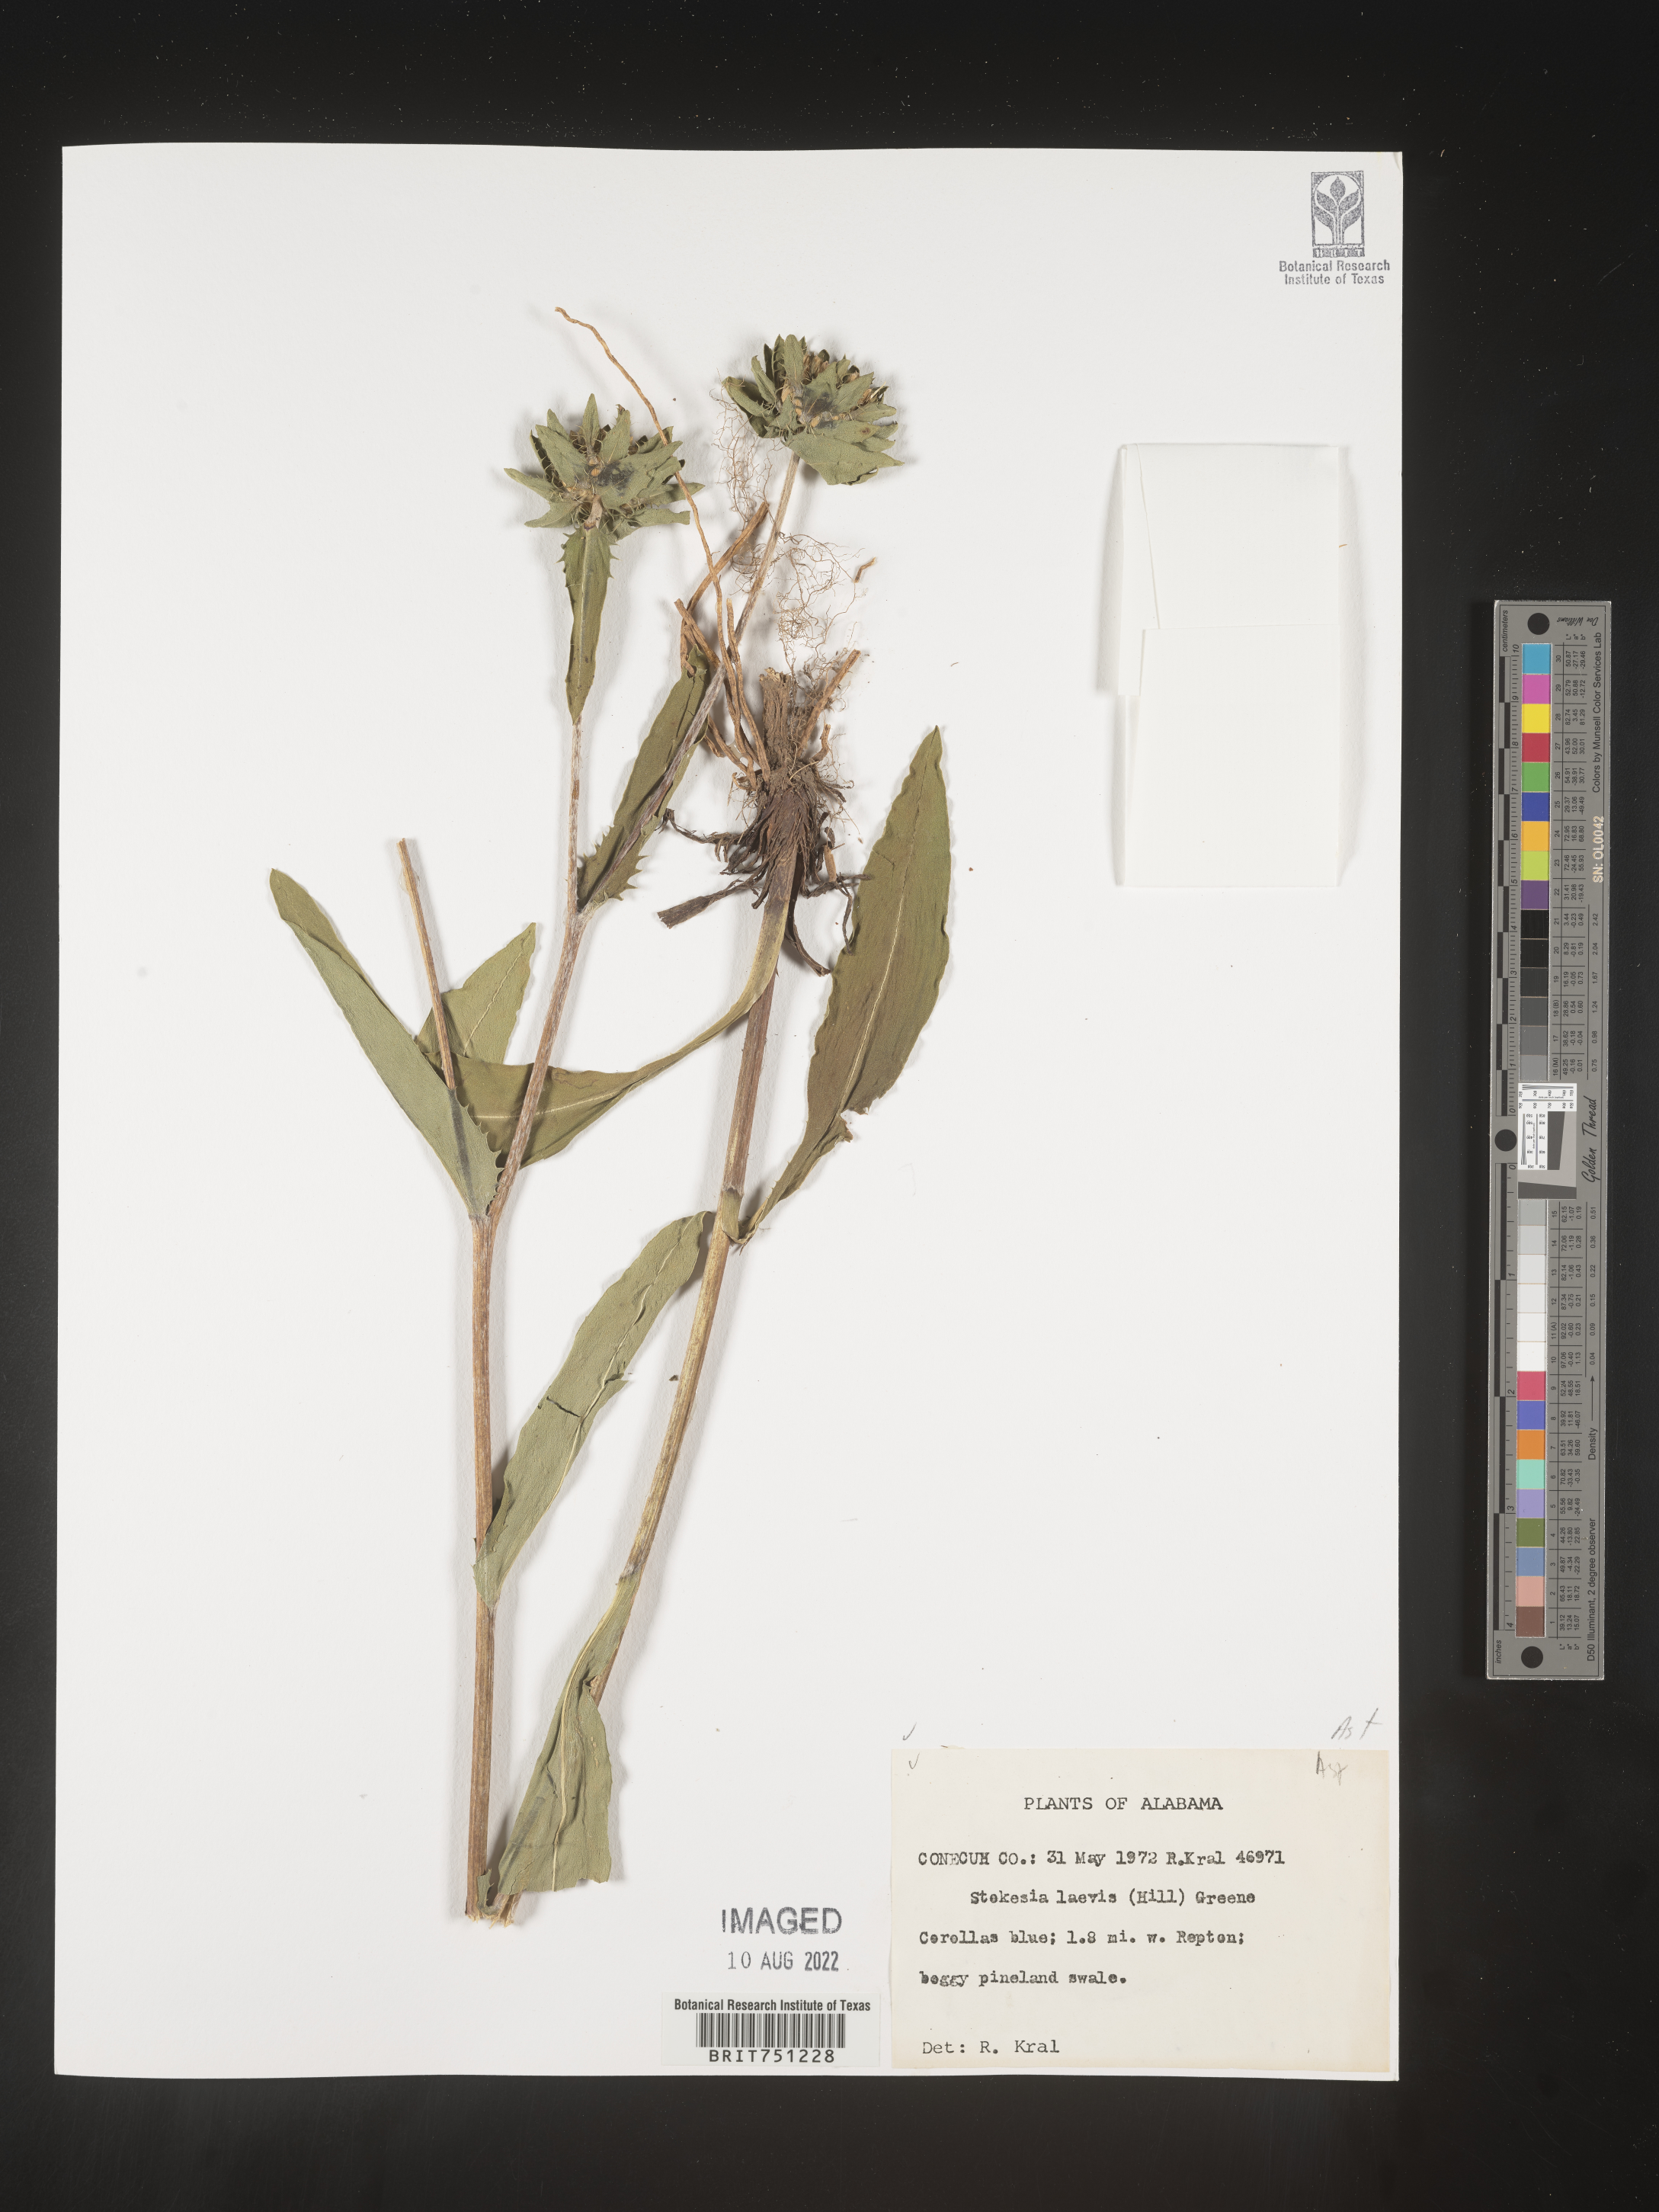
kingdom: Plantae
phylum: Tracheophyta
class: Magnoliopsida
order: Asterales
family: Asteraceae
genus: Stokesia
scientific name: Stokesia
